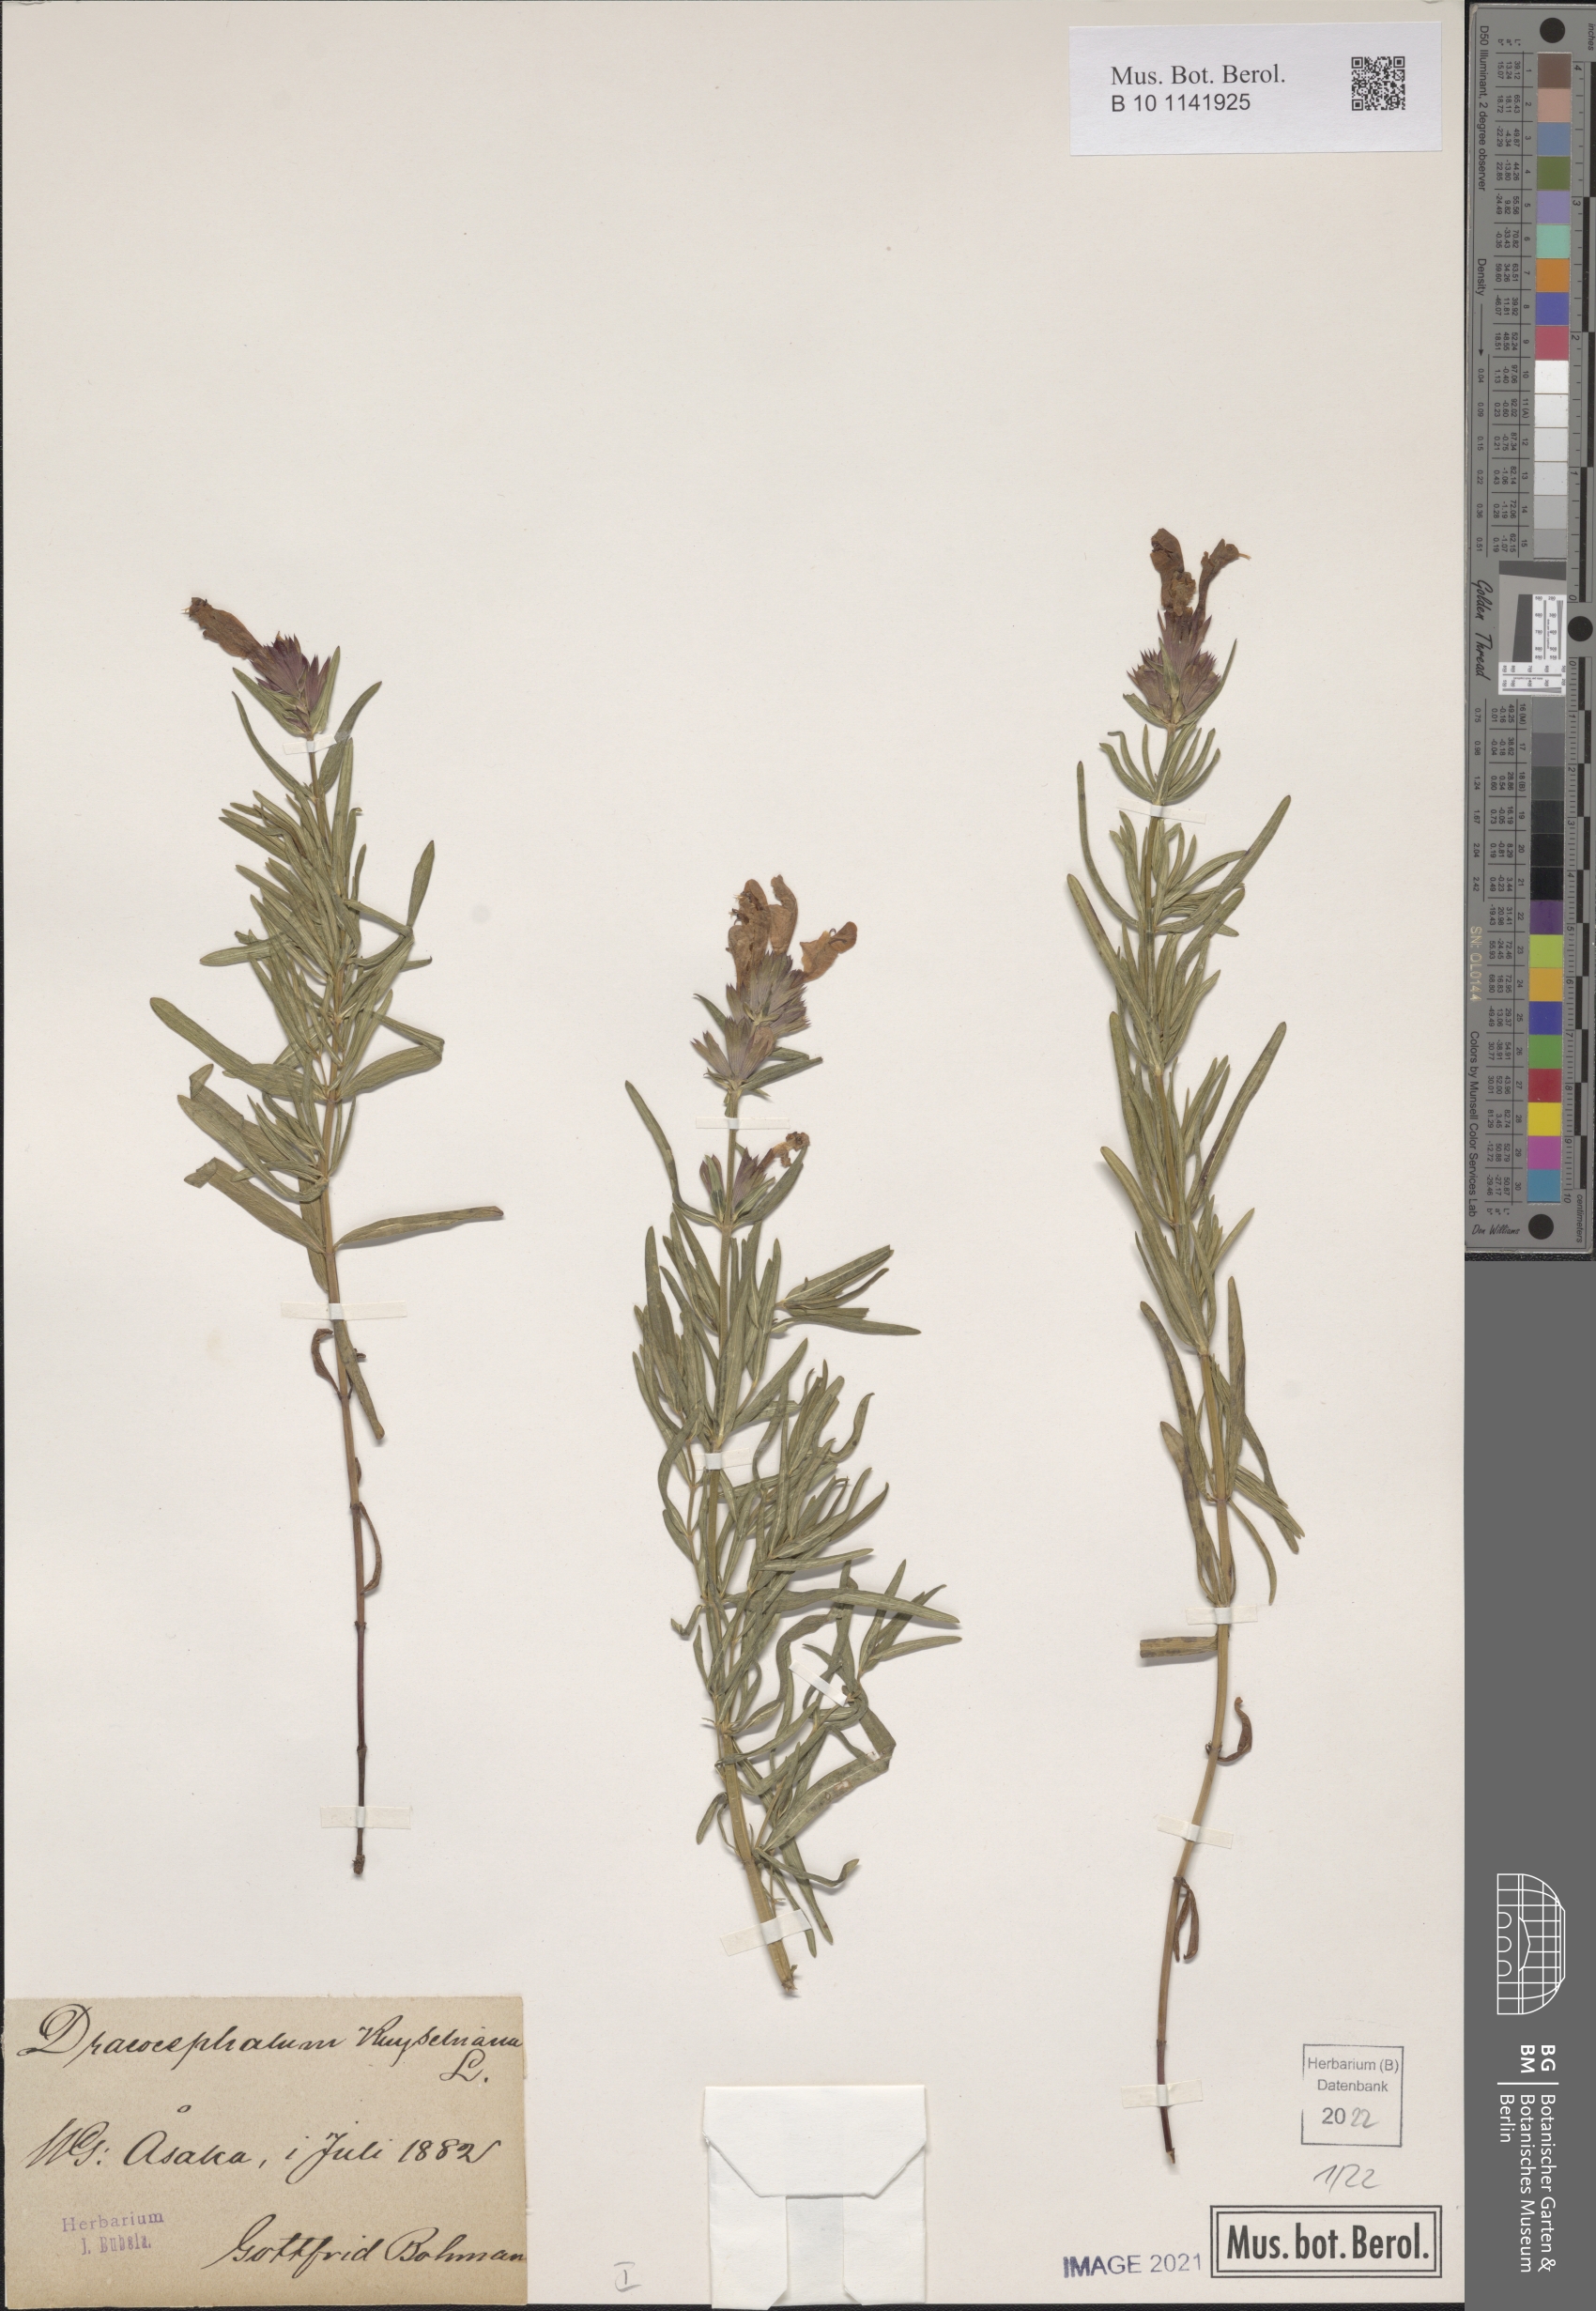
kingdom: Plantae
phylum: Tracheophyta
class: Magnoliopsida
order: Lamiales
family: Lamiaceae
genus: Dracocephalum
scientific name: Dracocephalum ruyschiana
